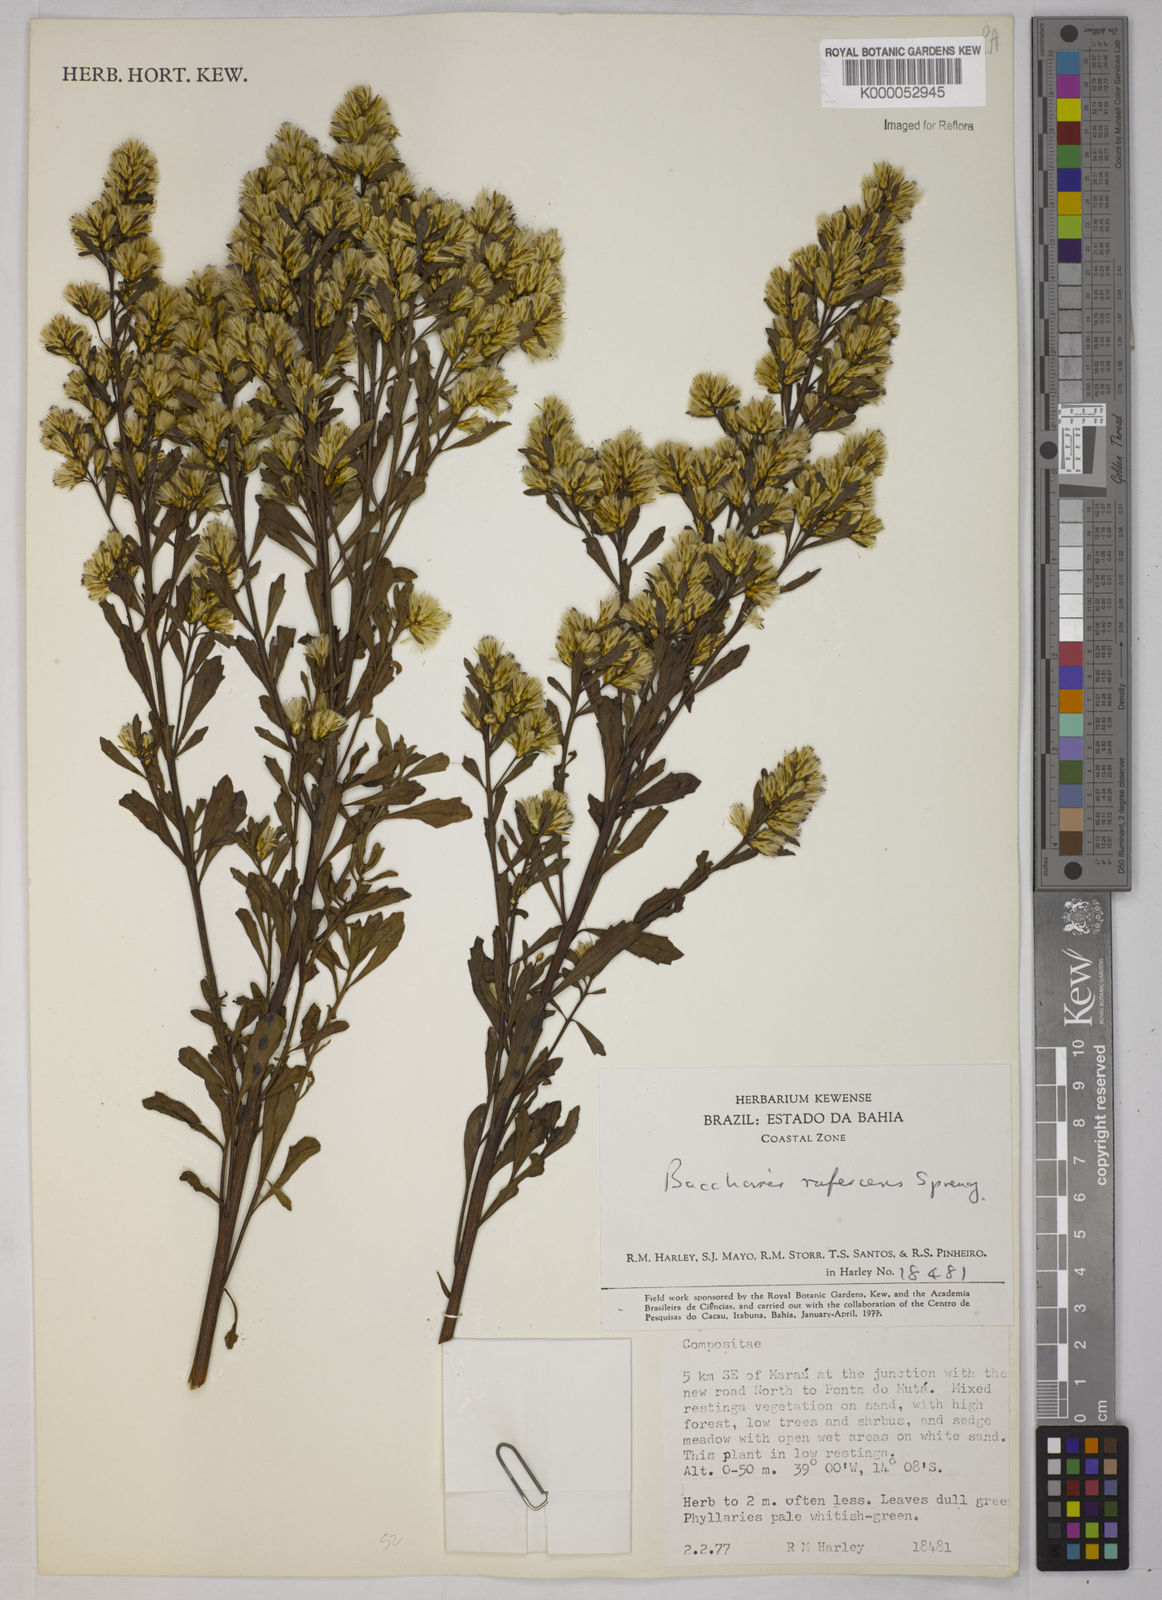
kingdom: Plantae
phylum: Tracheophyta
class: Magnoliopsida
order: Asterales
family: Asteraceae
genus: Baccharis
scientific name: Baccharis varians
